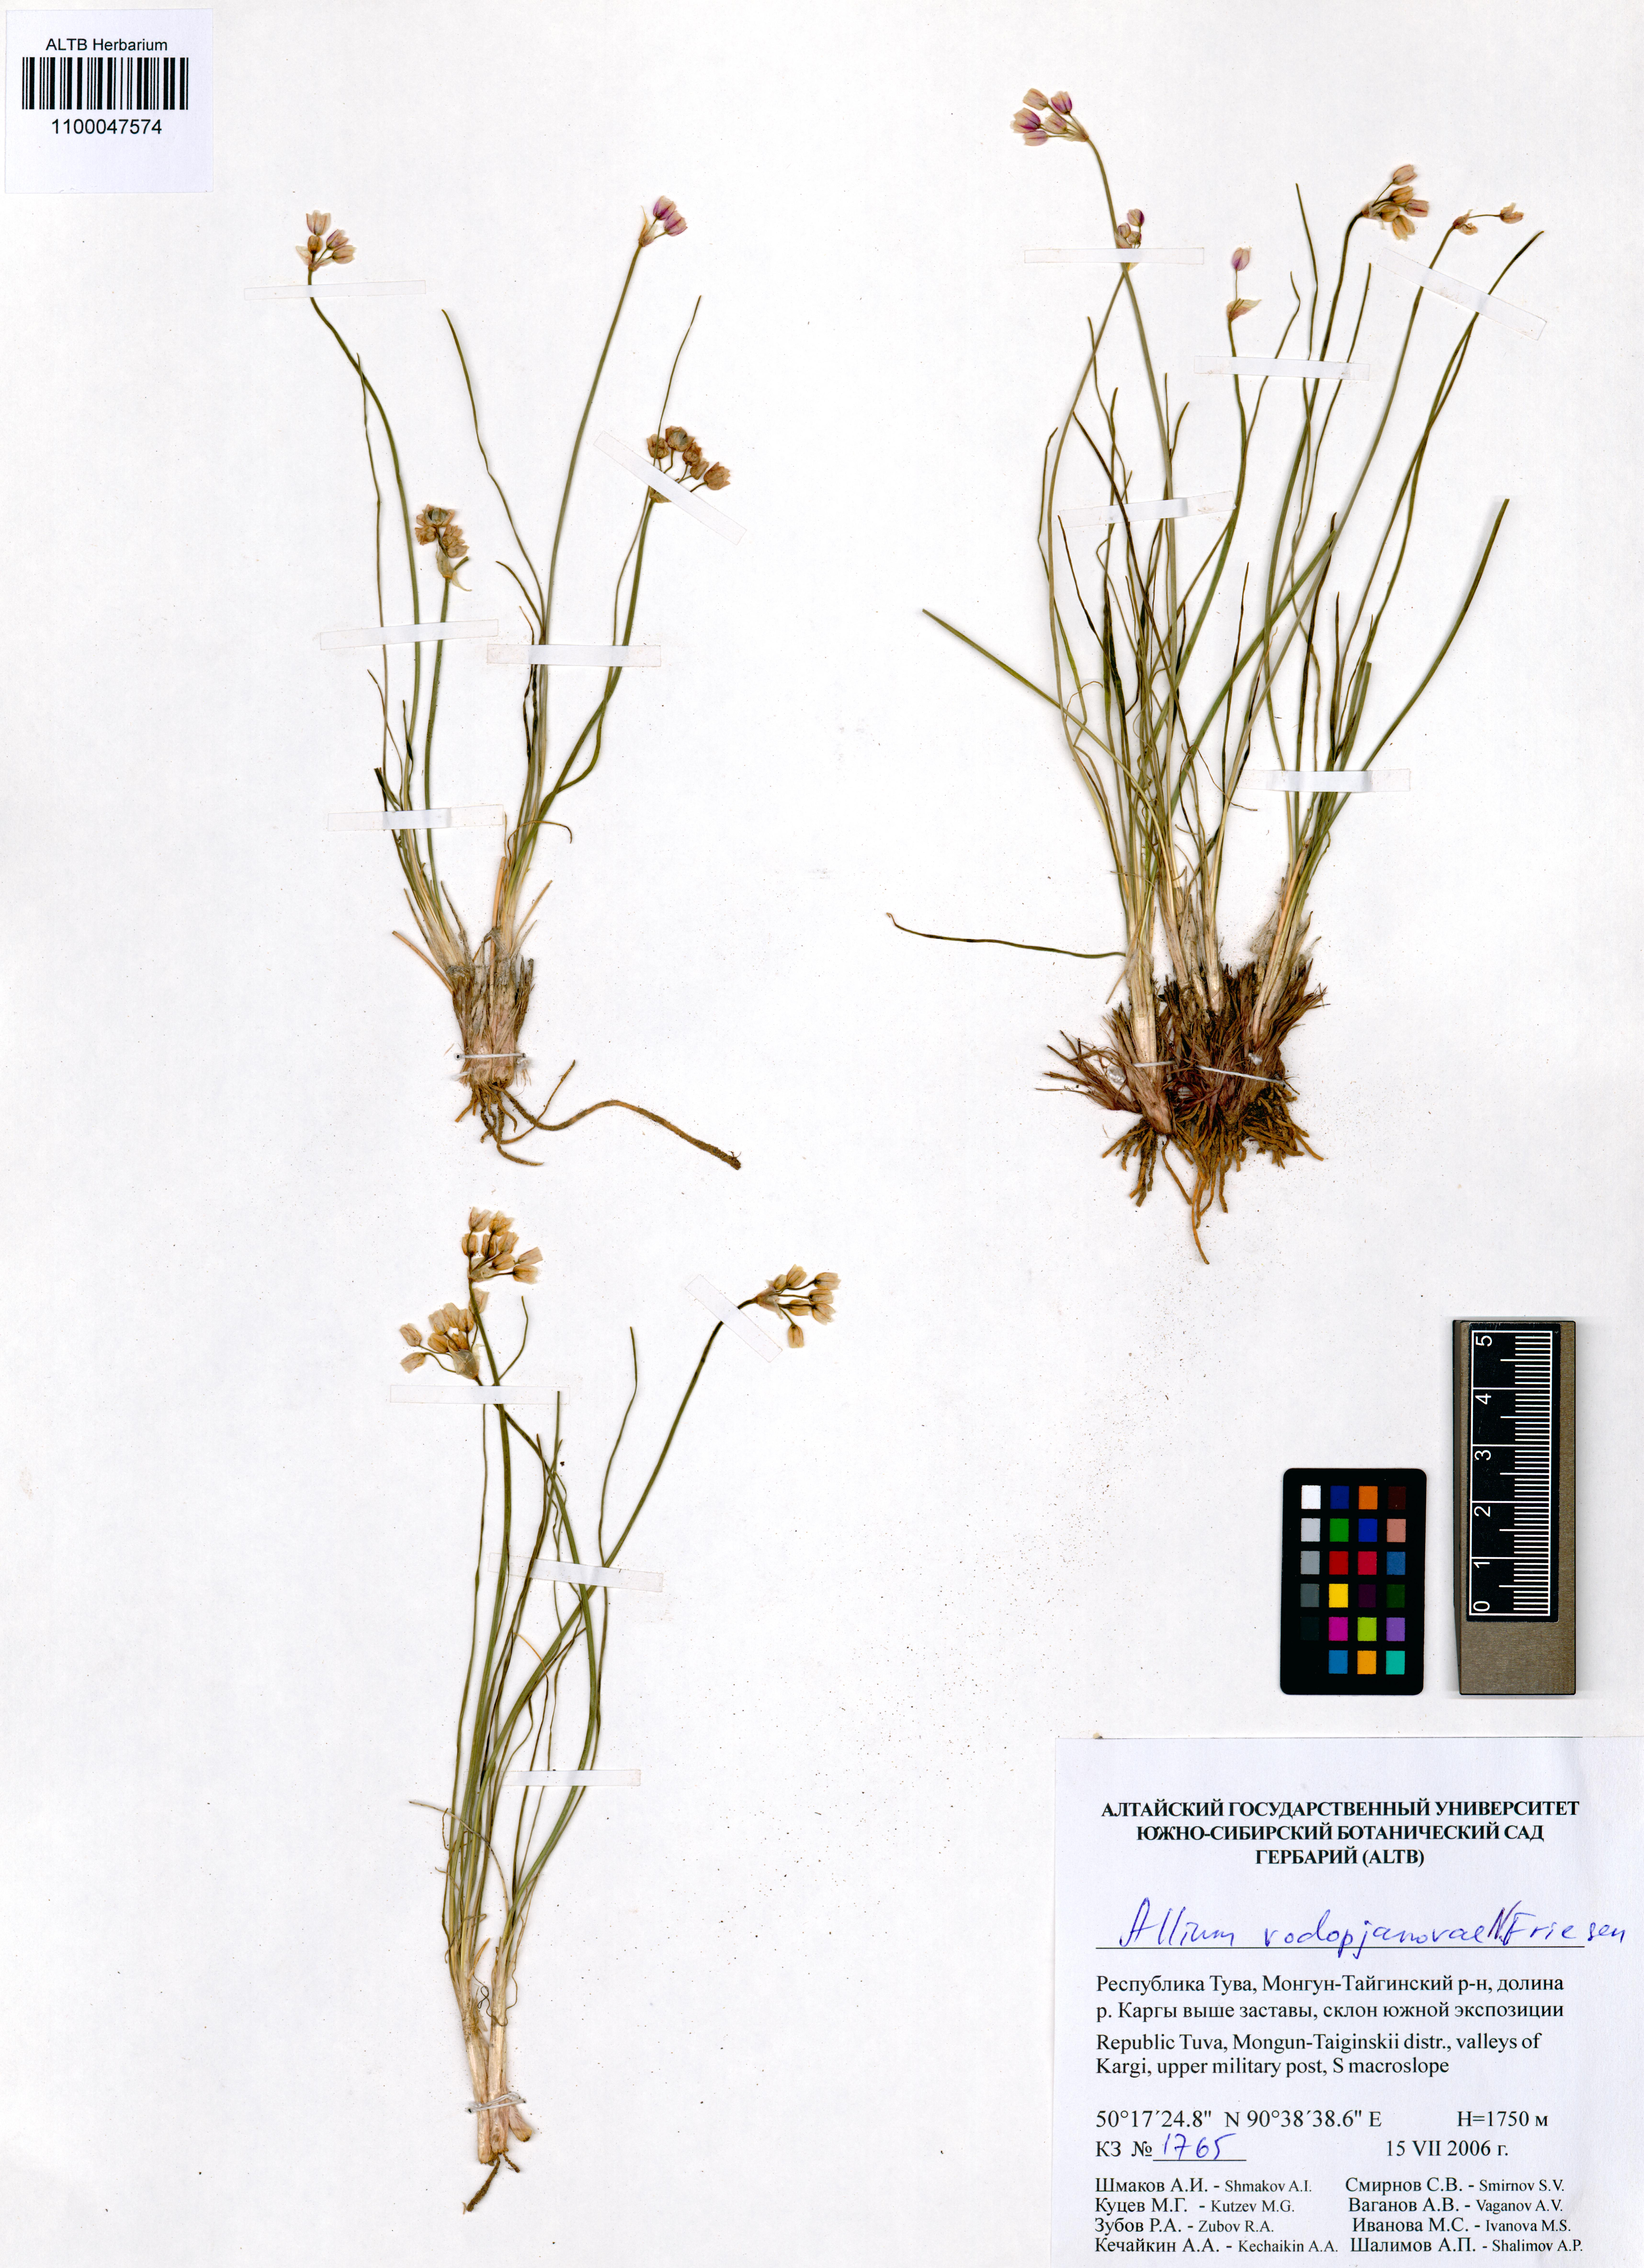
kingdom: Plantae
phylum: Tracheophyta
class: Liliopsida
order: Asparagales
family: Amaryllidaceae
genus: Allium
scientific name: Allium vodopjanovae
